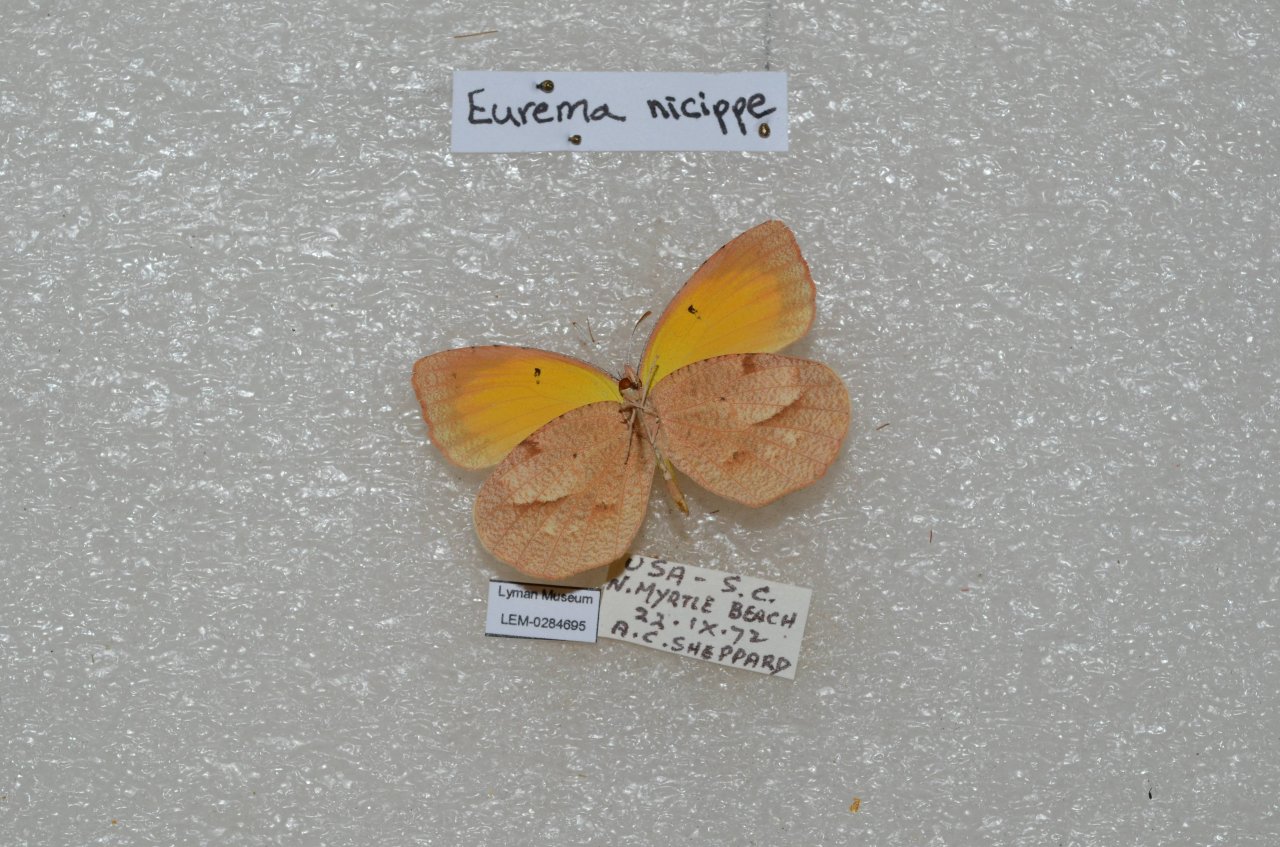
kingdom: Animalia
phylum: Arthropoda
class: Insecta
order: Lepidoptera
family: Pieridae
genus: Abaeis
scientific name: Abaeis nicippe
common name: Sleepy Orange
